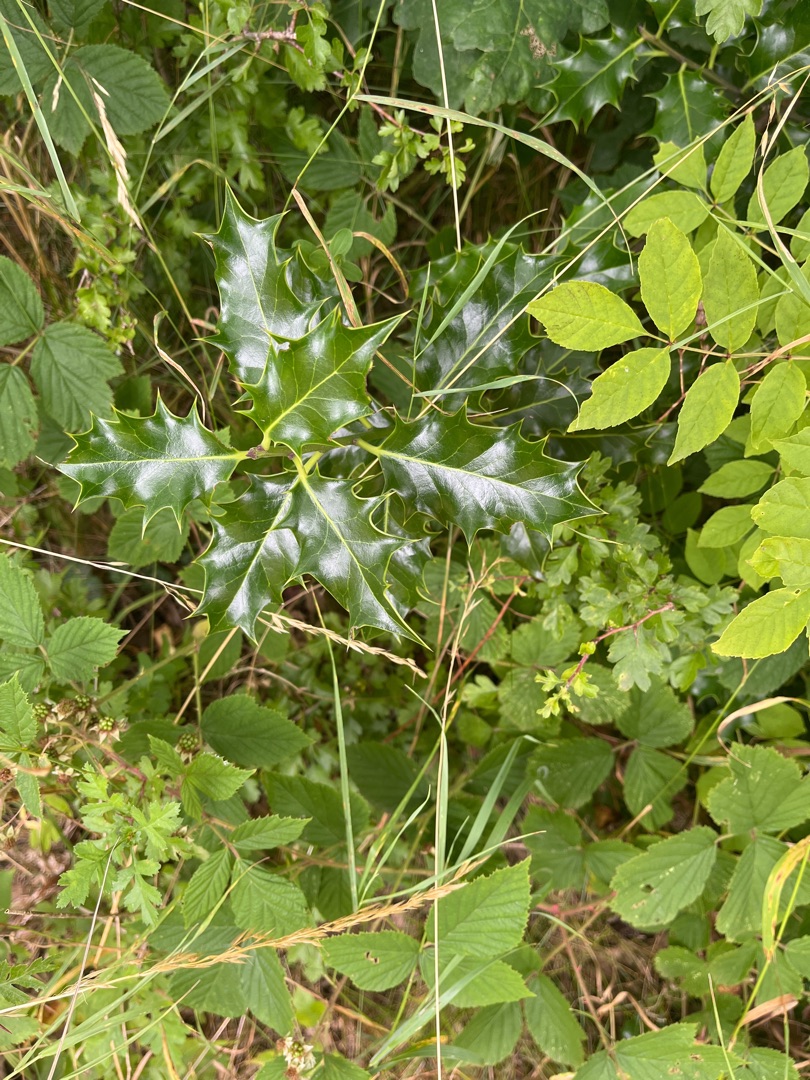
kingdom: Plantae
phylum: Tracheophyta
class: Magnoliopsida
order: Aquifoliales
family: Aquifoliaceae
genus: Ilex
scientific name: Ilex aquifolium
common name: Kristtorn
